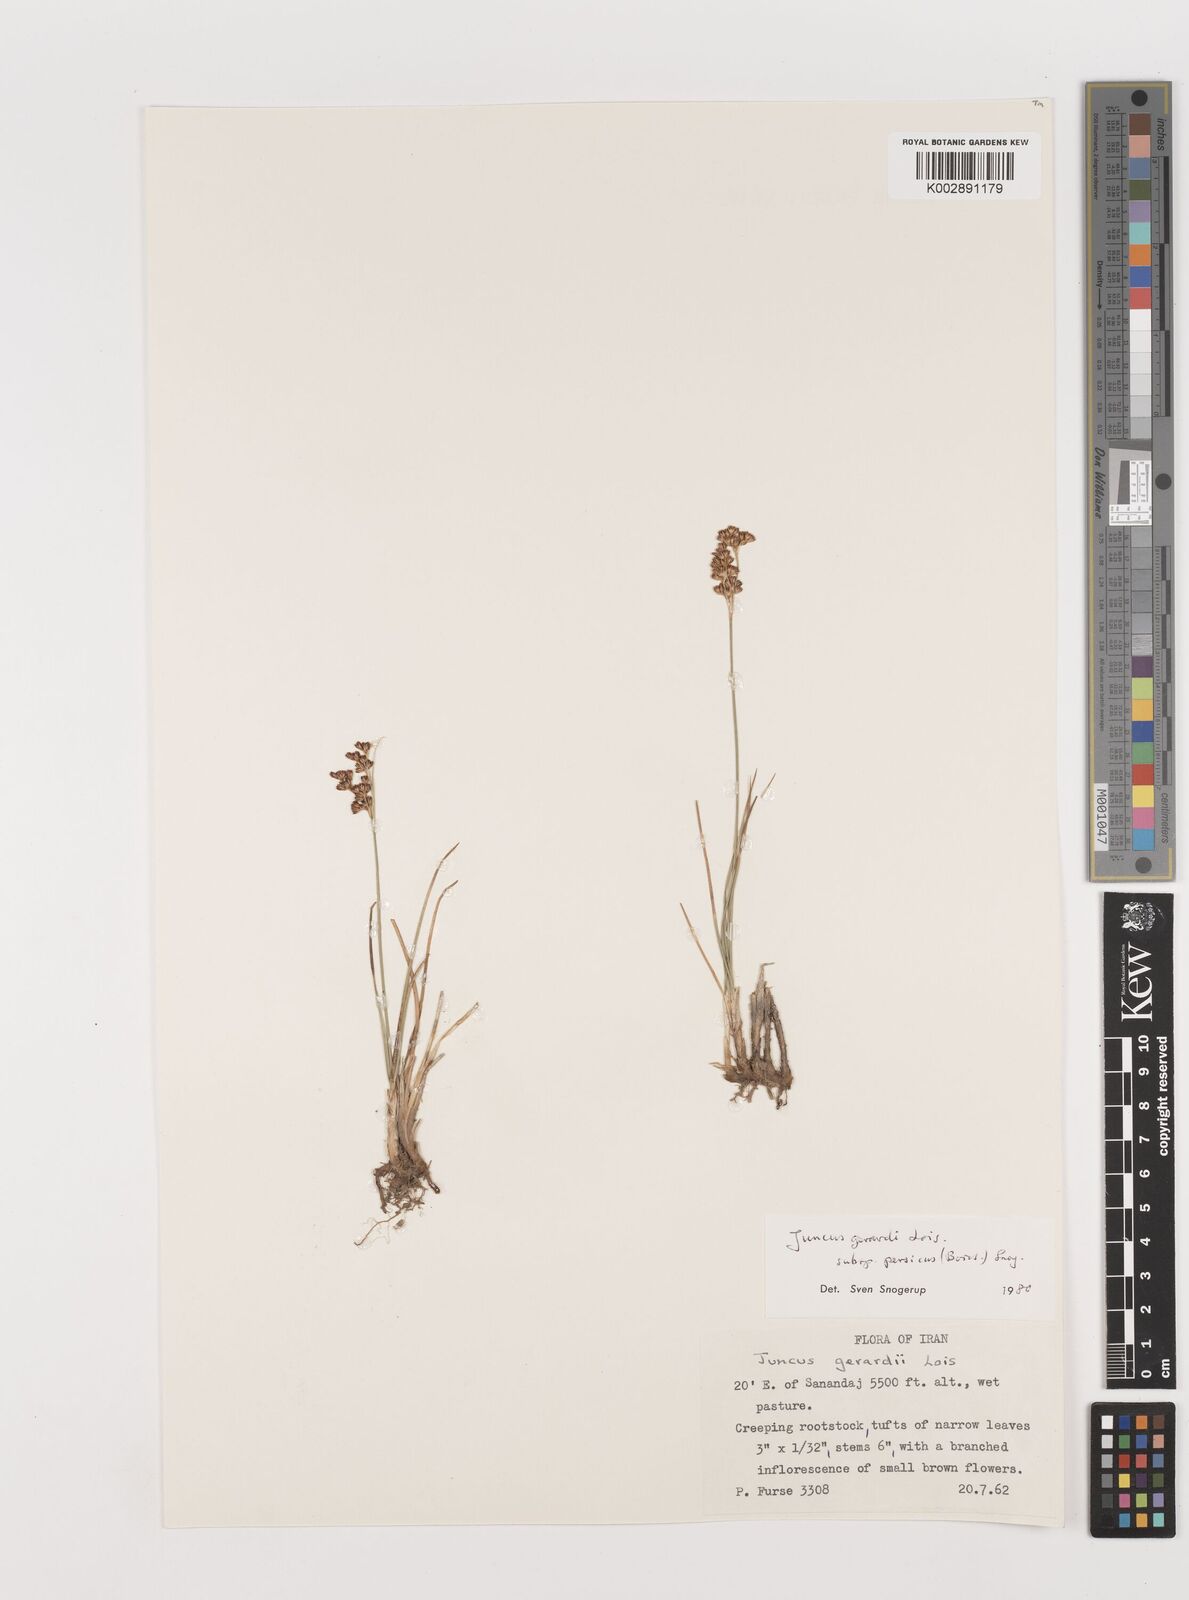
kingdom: Plantae
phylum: Tracheophyta
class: Liliopsida
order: Poales
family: Juncaceae
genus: Juncus
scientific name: Juncus persicus
